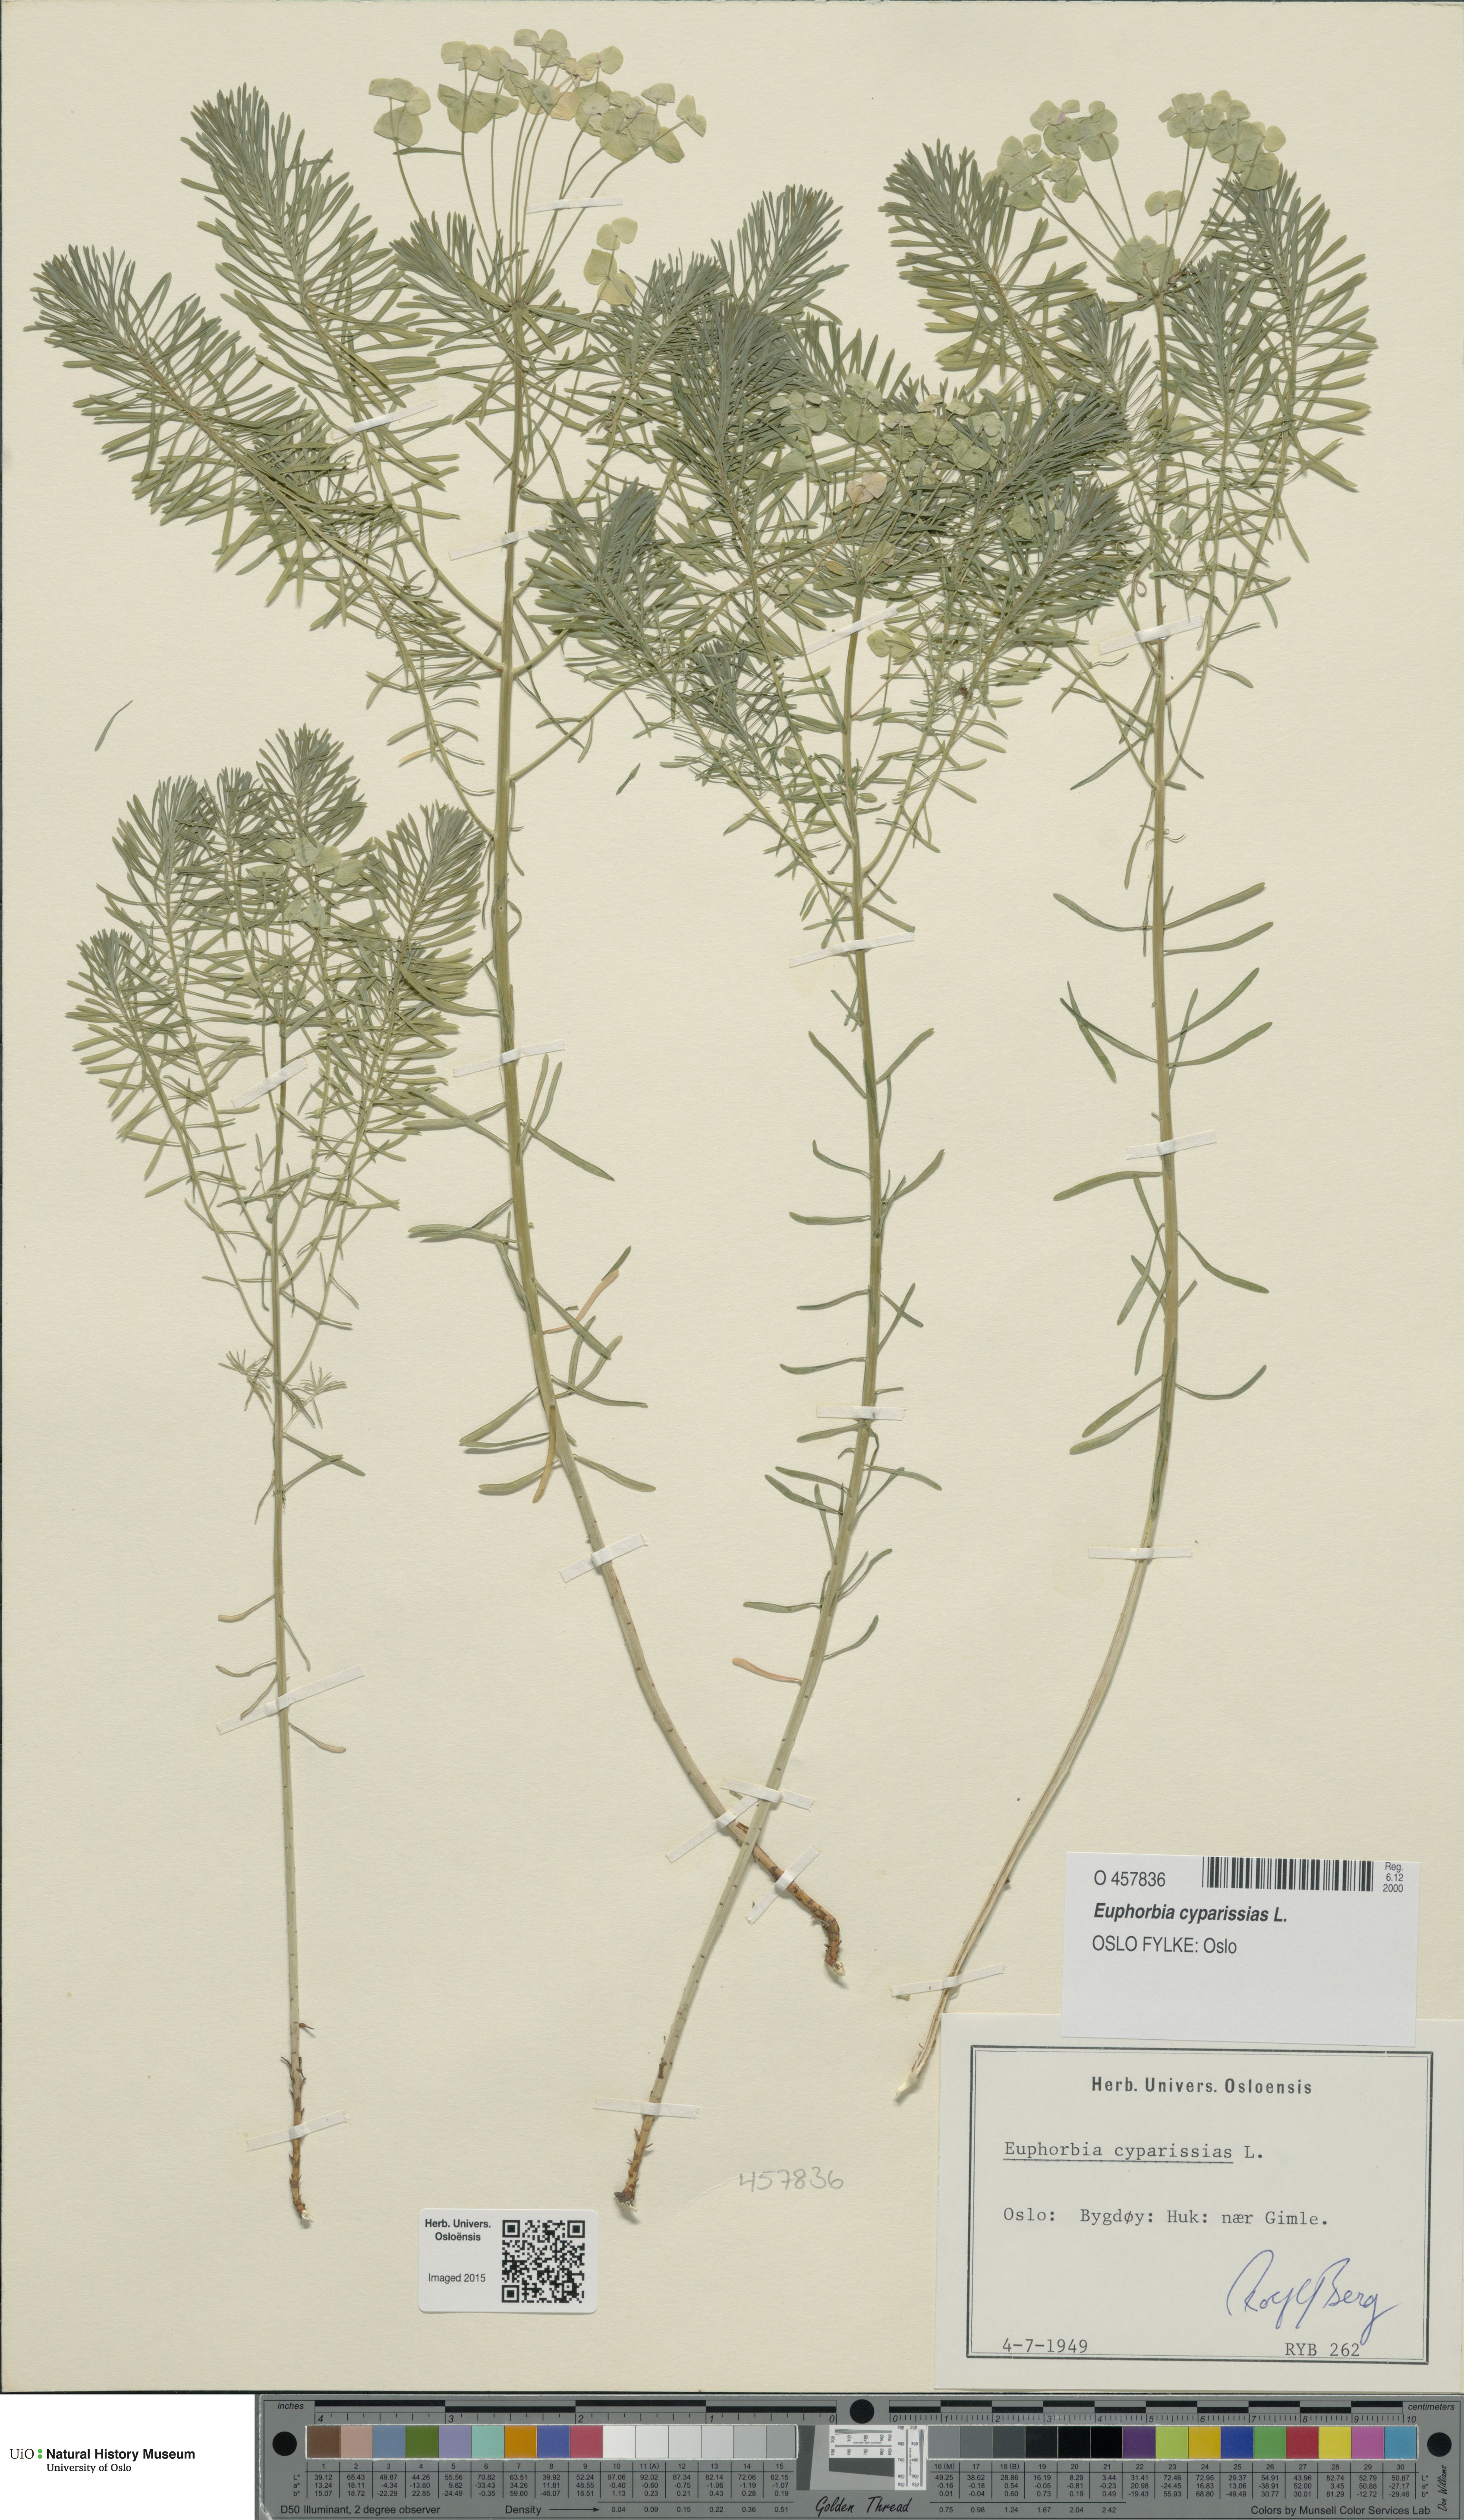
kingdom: Plantae
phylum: Tracheophyta
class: Magnoliopsida
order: Malpighiales
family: Euphorbiaceae
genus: Euphorbia
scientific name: Euphorbia cyparissias
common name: Cypress spurge
